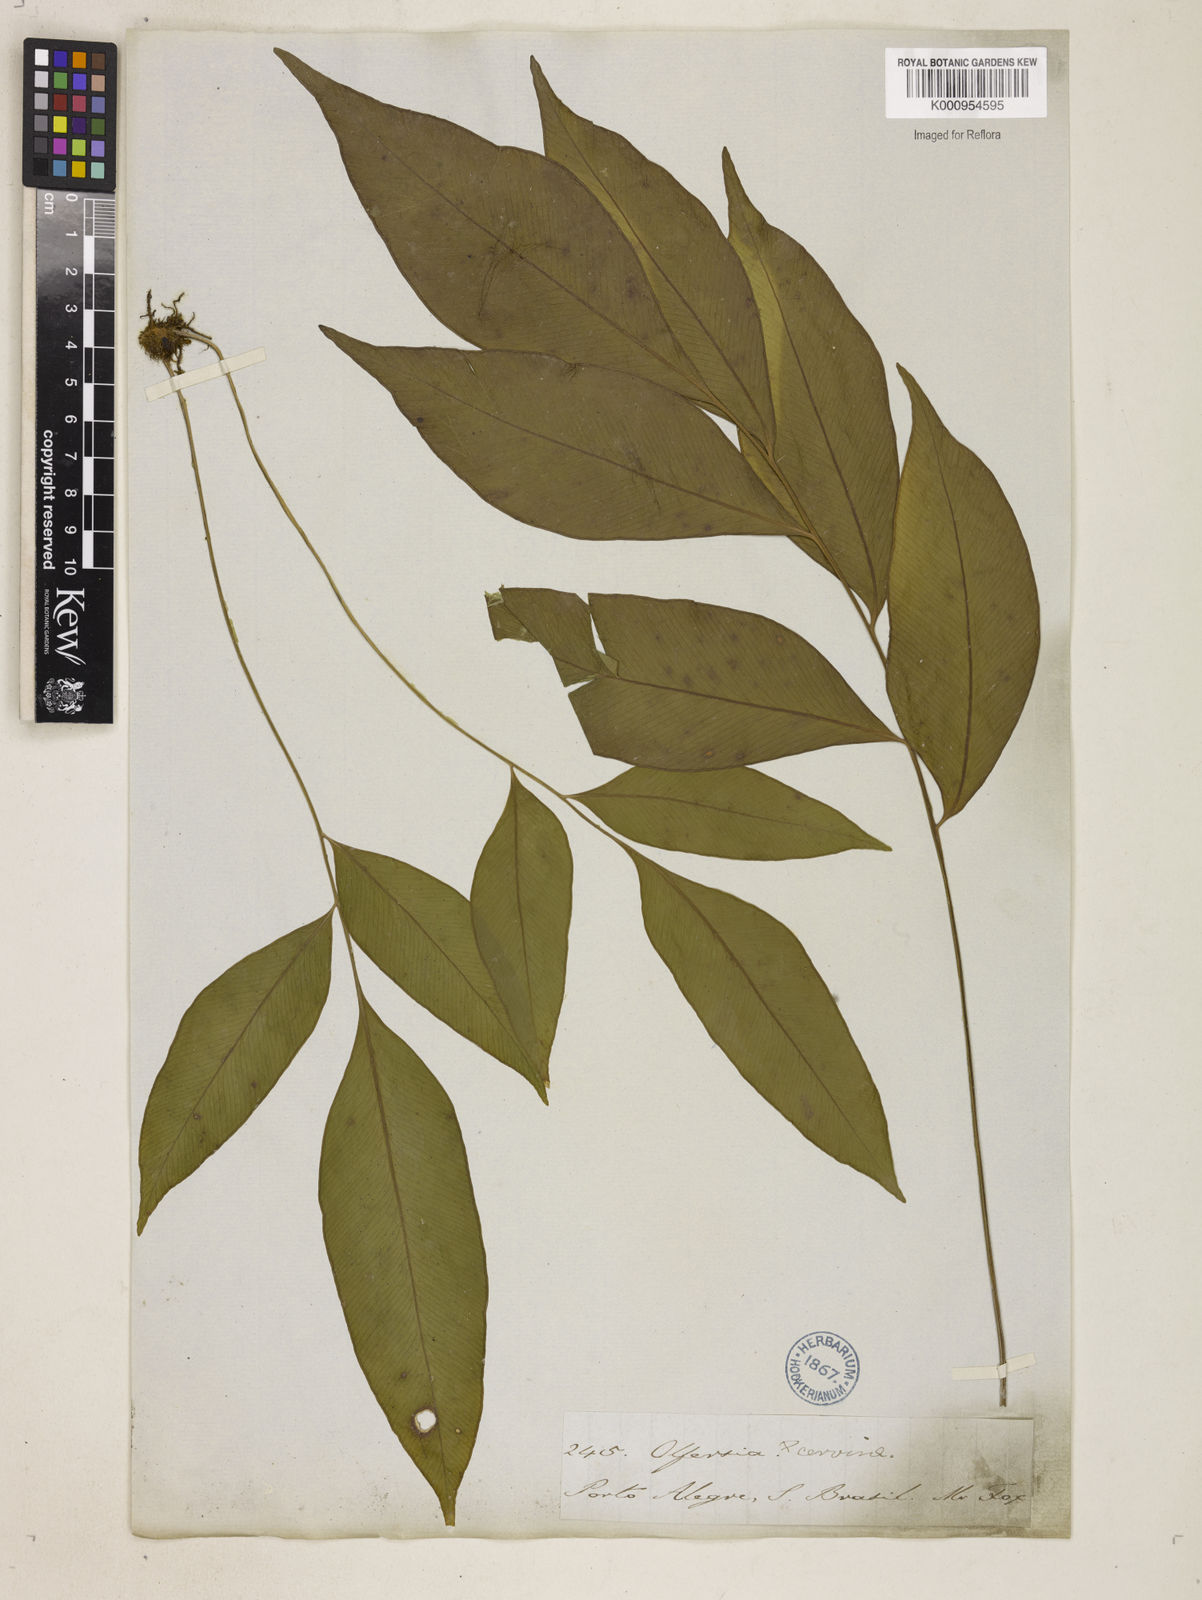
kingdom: Plantae
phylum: Tracheophyta
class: Polypodiopsida
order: Polypodiales
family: Dryopteridaceae
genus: Olfersia
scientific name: Olfersia cervina
